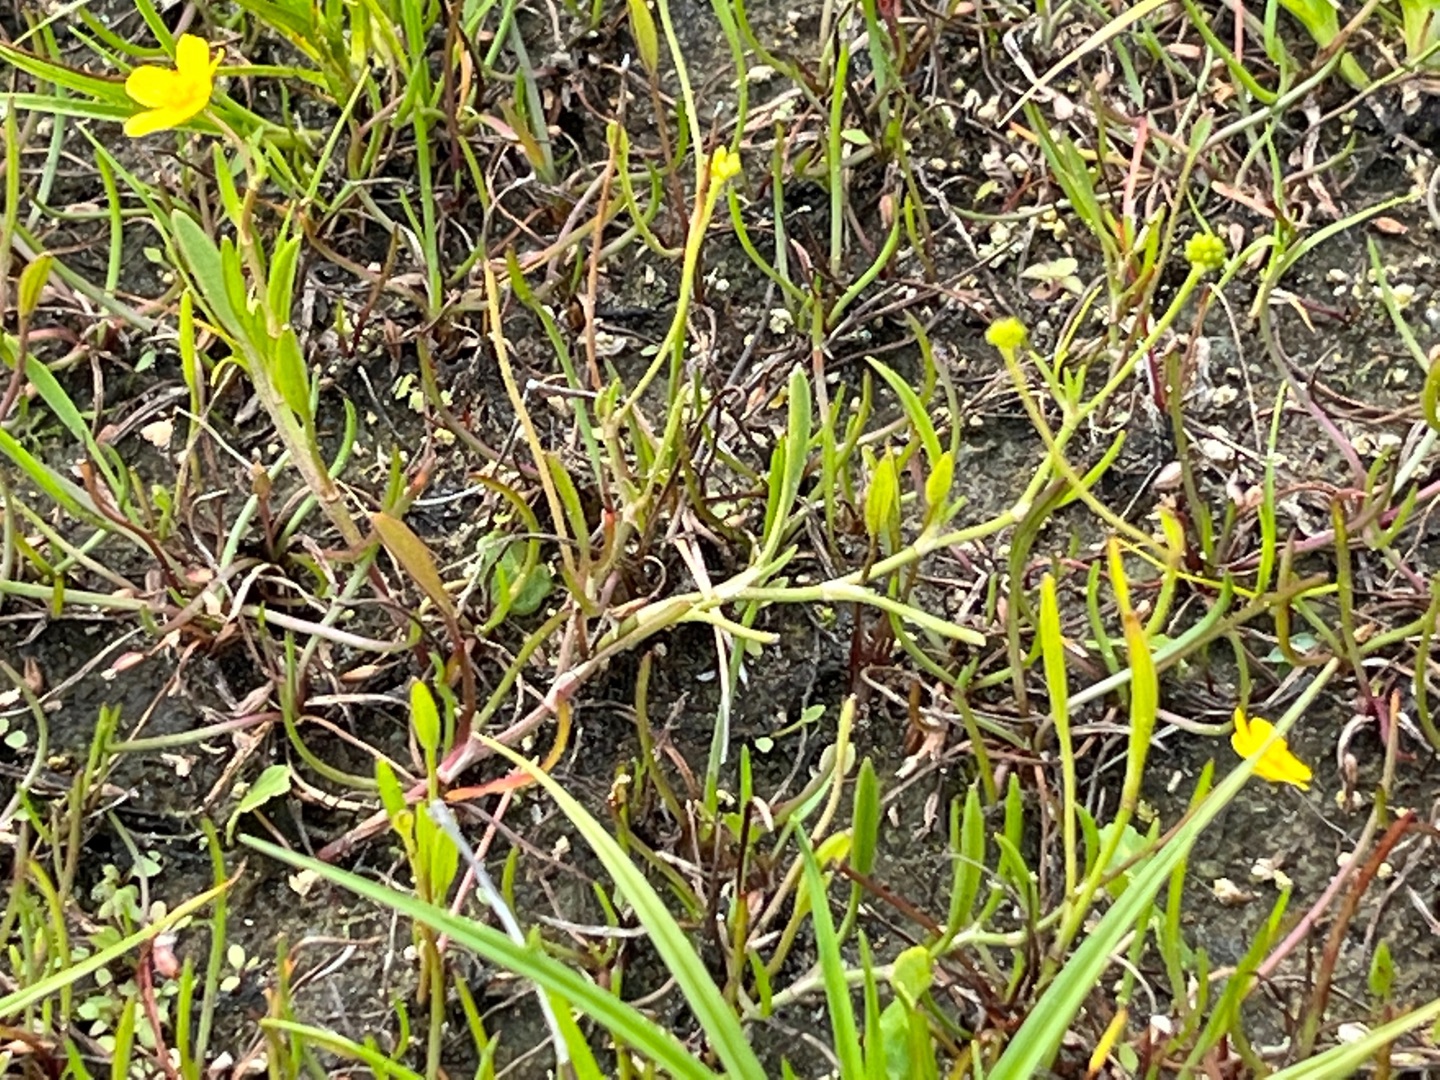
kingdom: Plantae
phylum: Tracheophyta
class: Magnoliopsida
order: Ranunculales
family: Ranunculaceae
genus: Ranunculus
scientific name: Ranunculus flammula
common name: Kær-ranunkel
